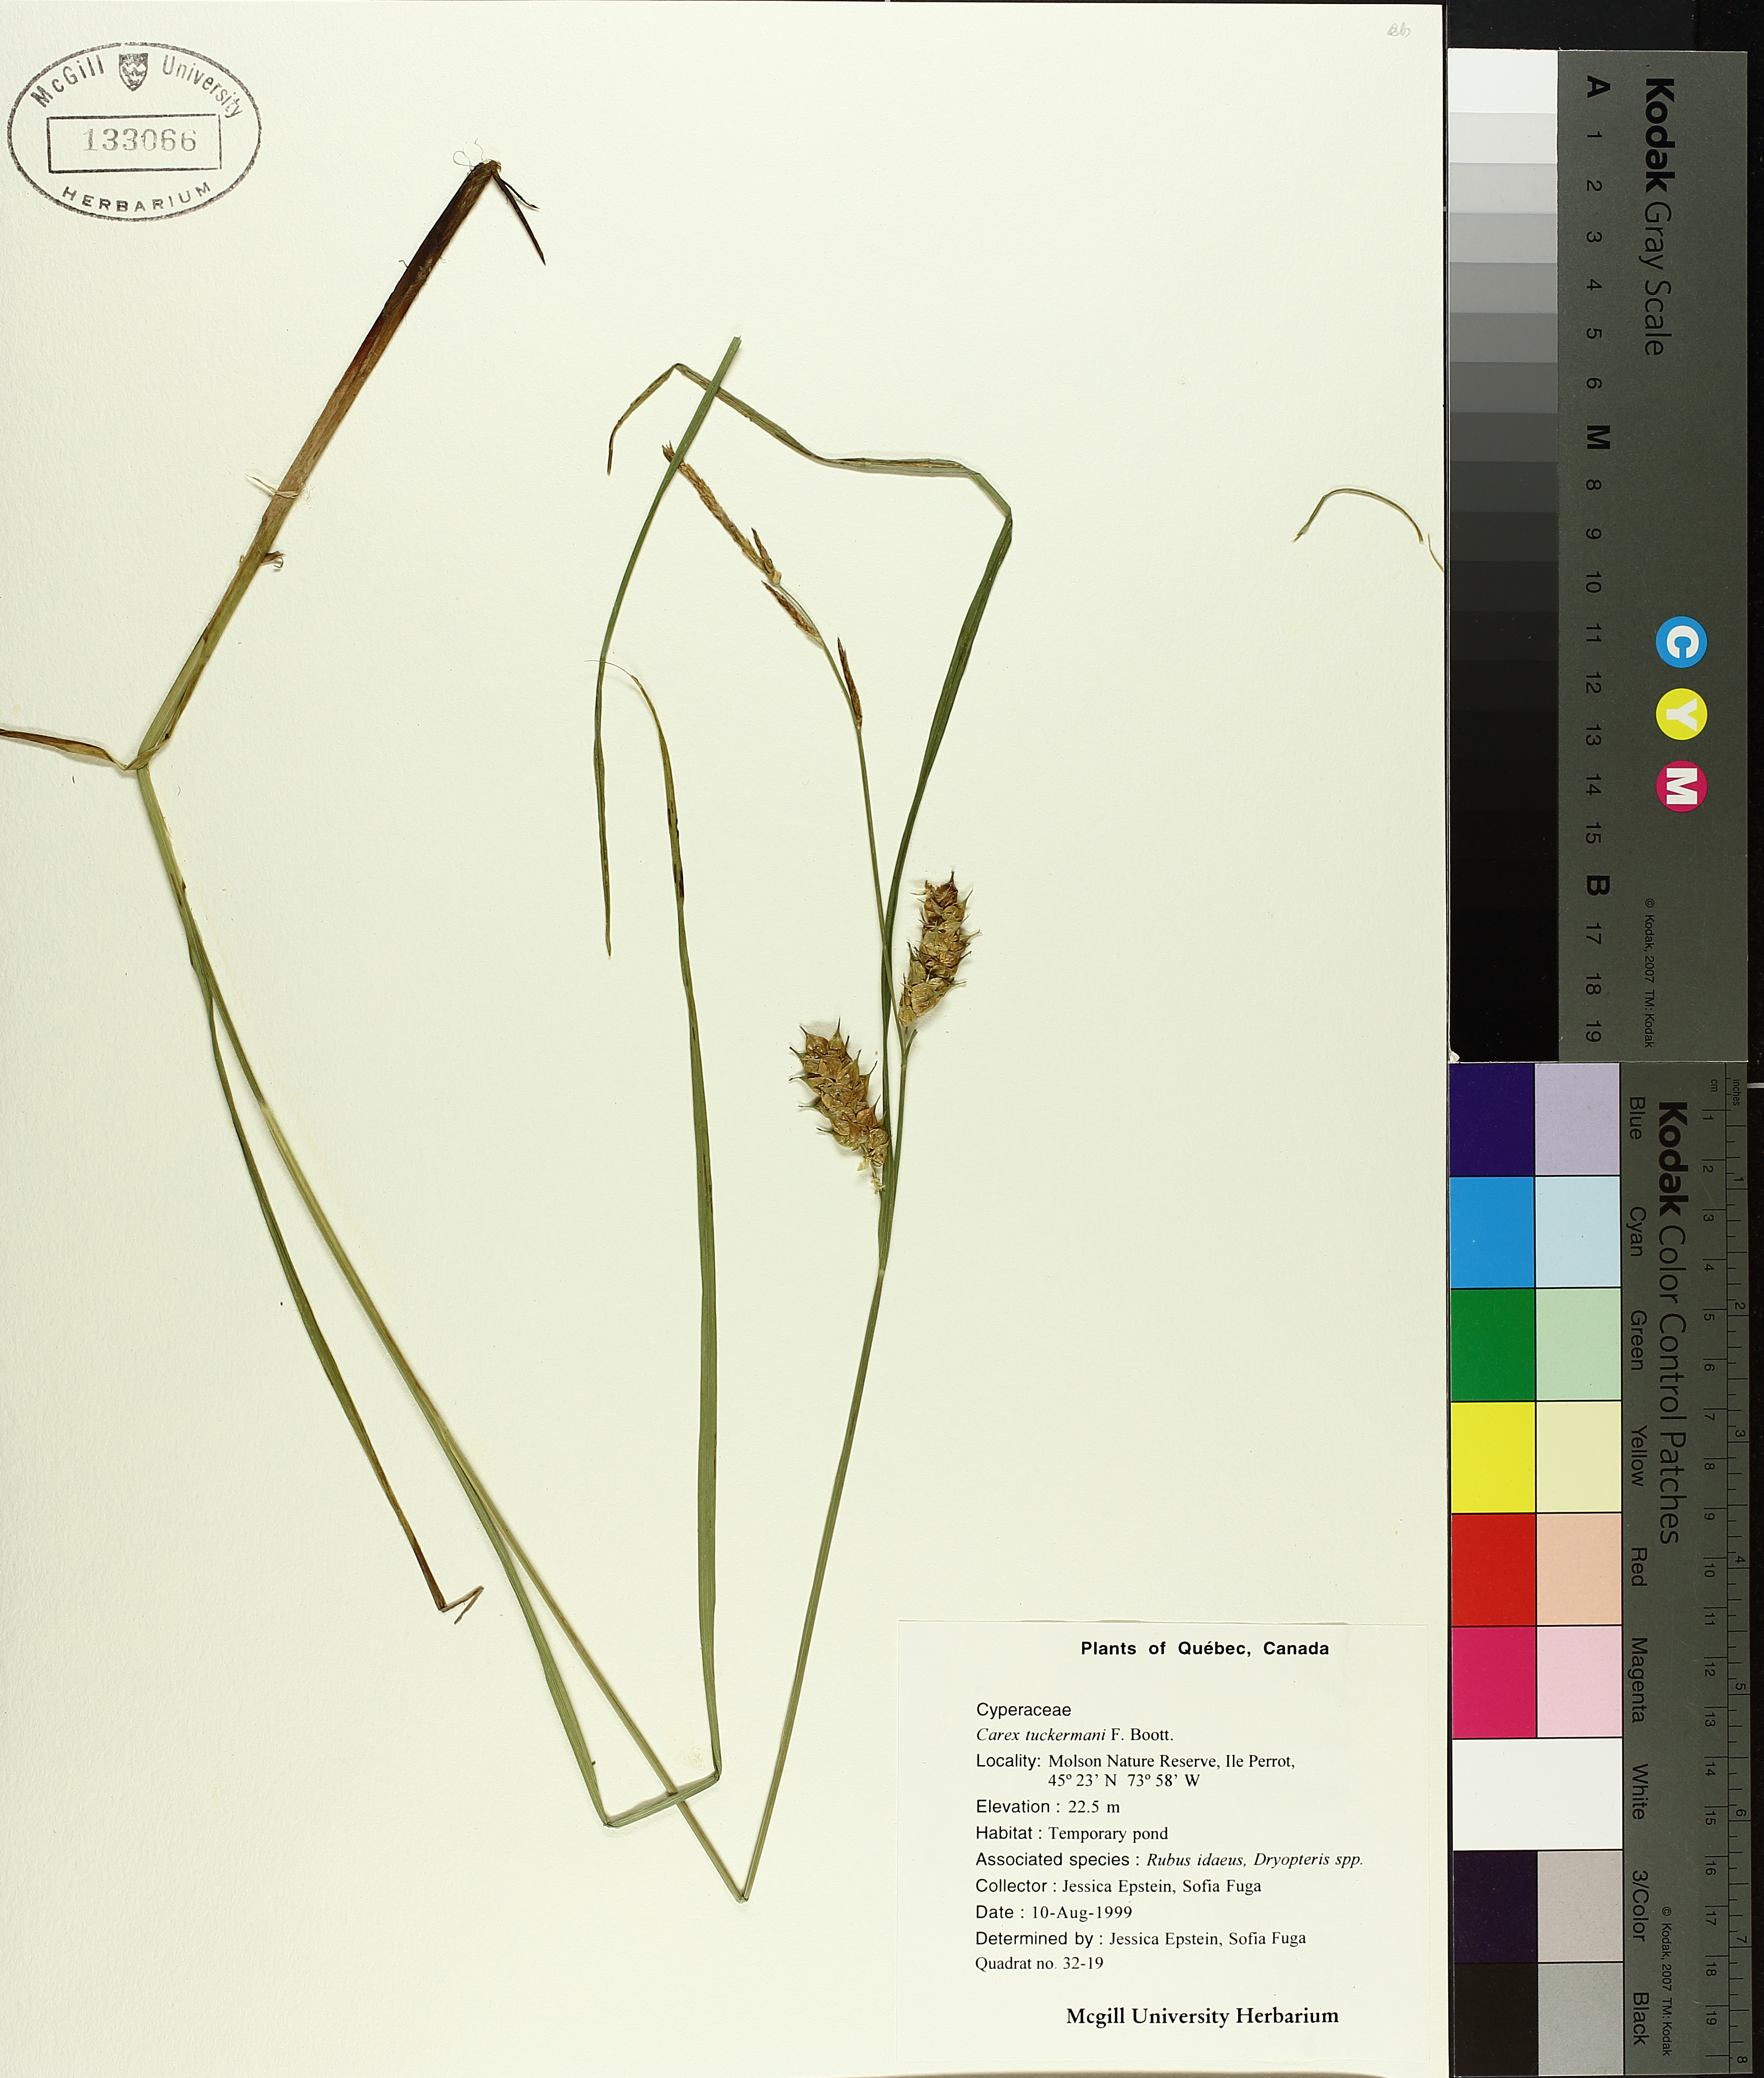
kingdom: Plantae
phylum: Tracheophyta
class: Liliopsida
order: Poales
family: Cyperaceae
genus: Carex
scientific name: Carex tuckermanii
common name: Tuckerman's sedge
